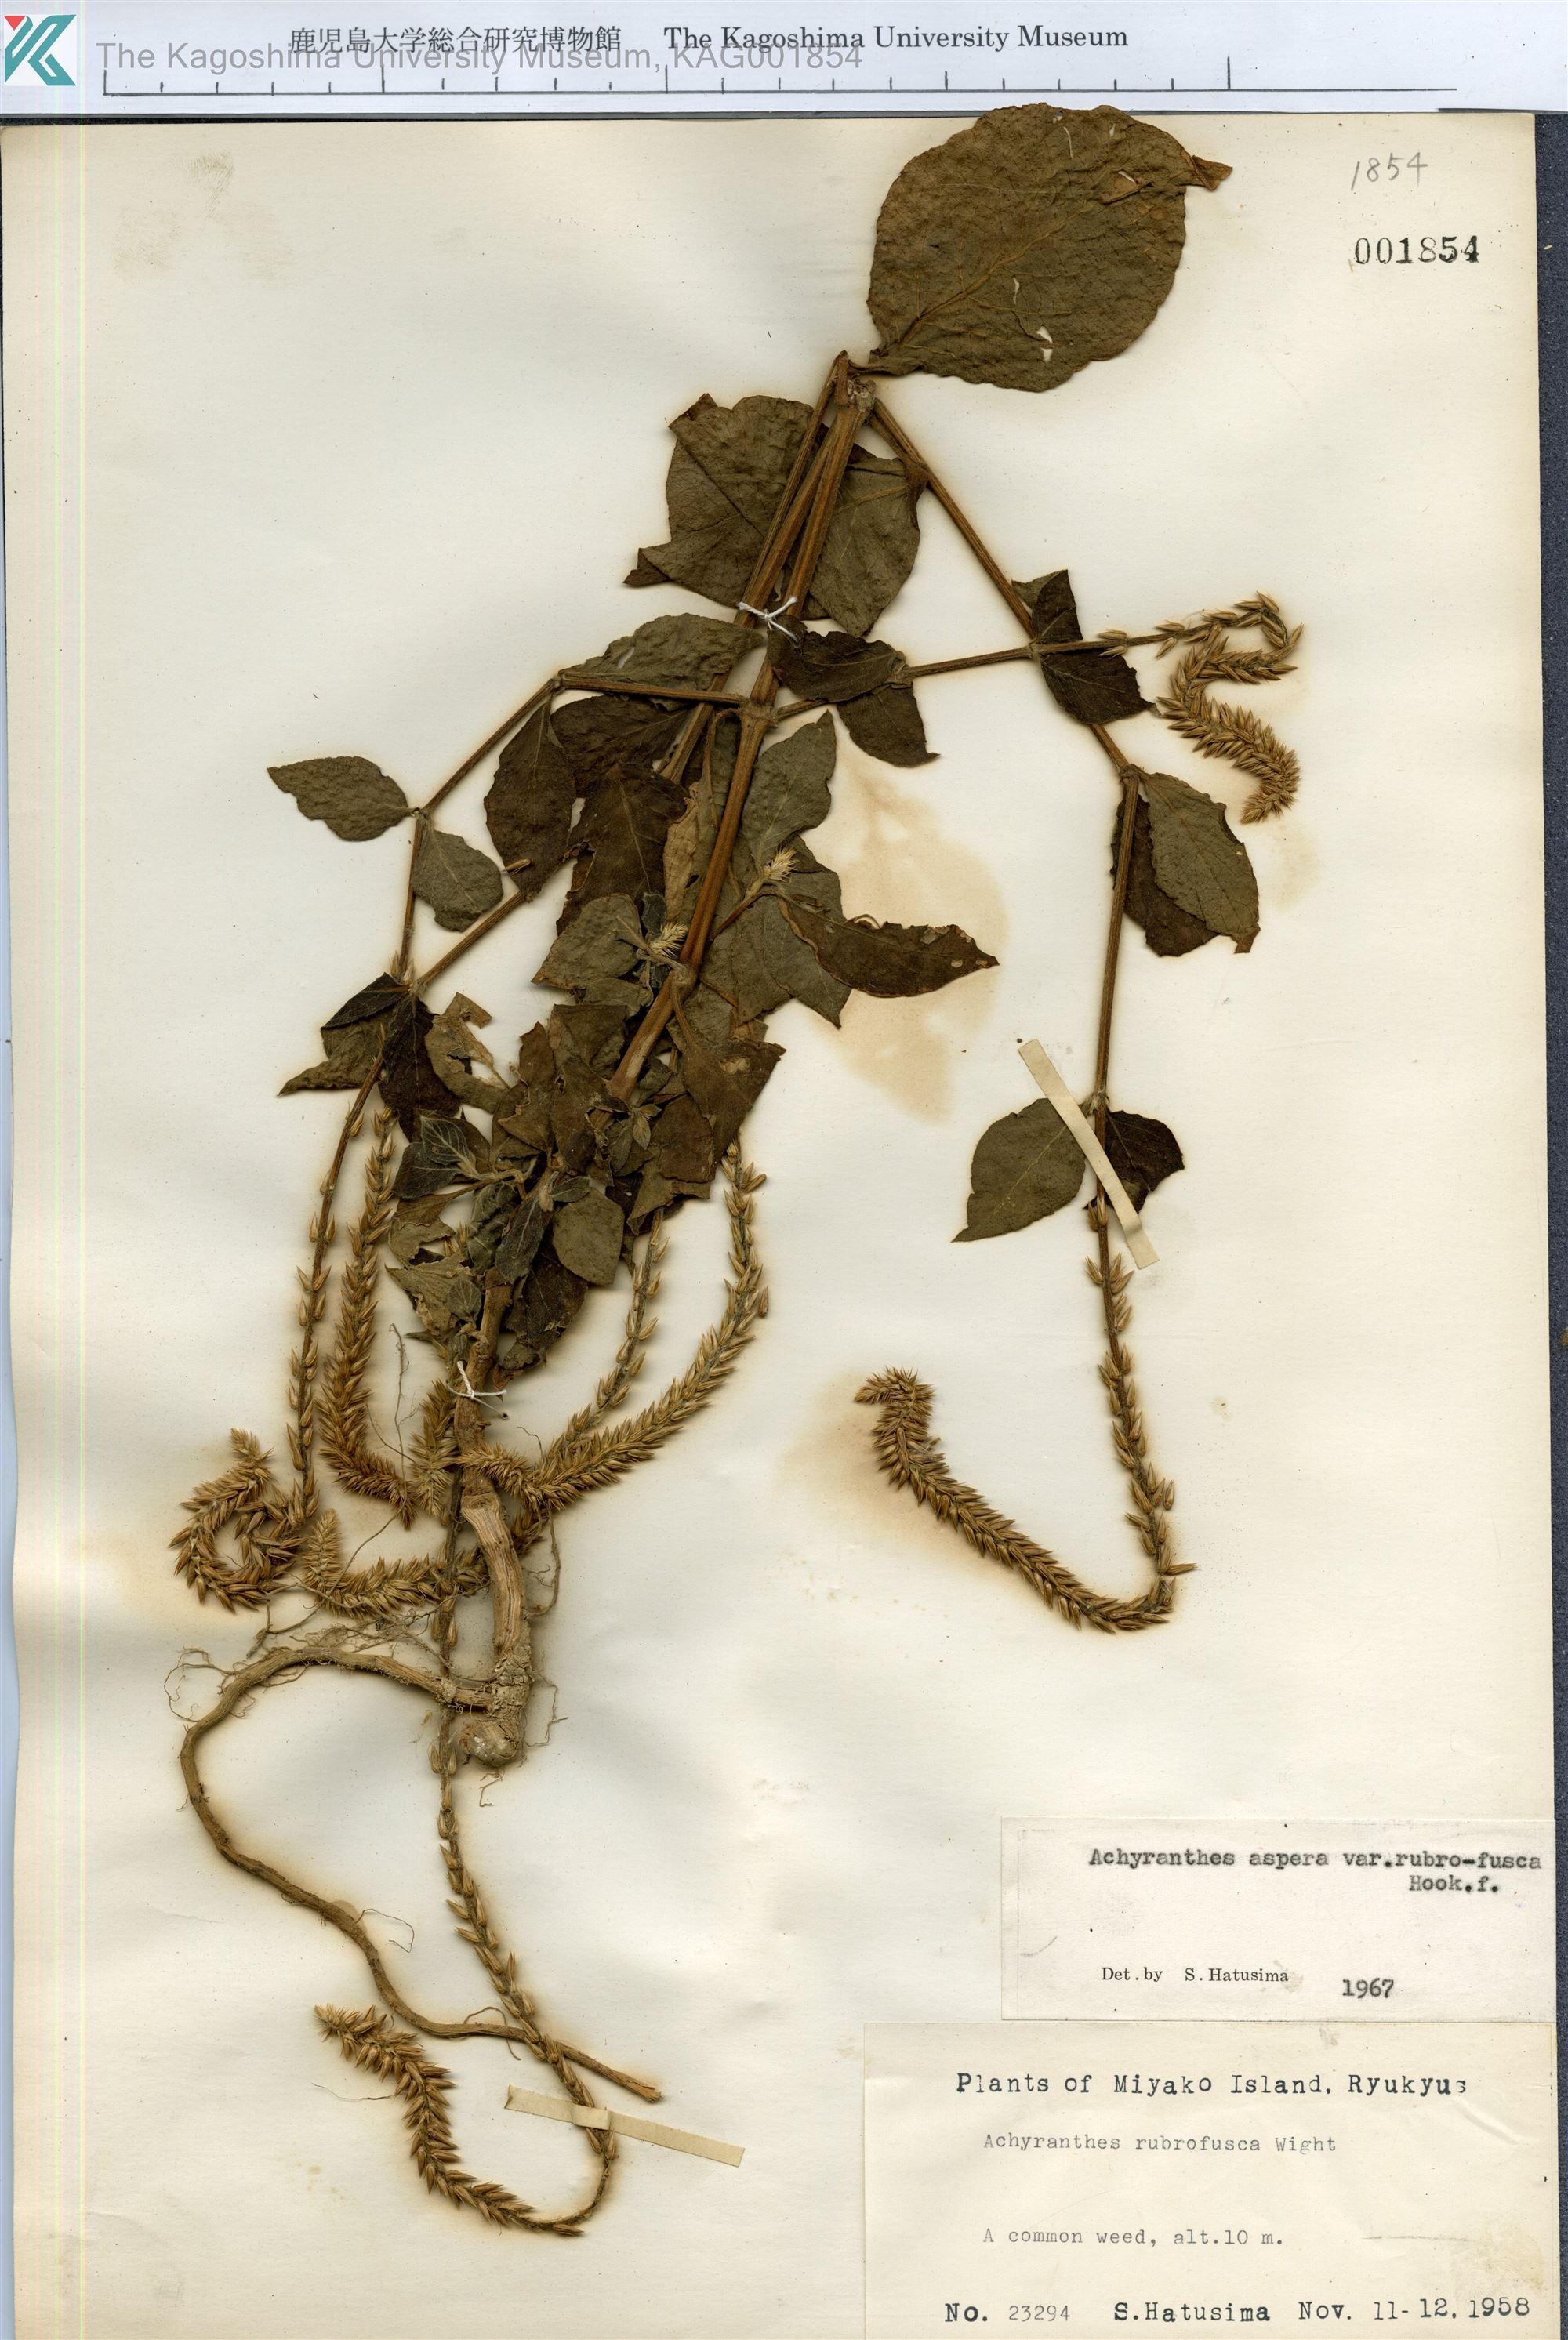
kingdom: Plantae
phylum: Tracheophyta
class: Magnoliopsida
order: Caryophyllales
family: Amaranthaceae
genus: Achyranthes
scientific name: Achyranthes aspera
